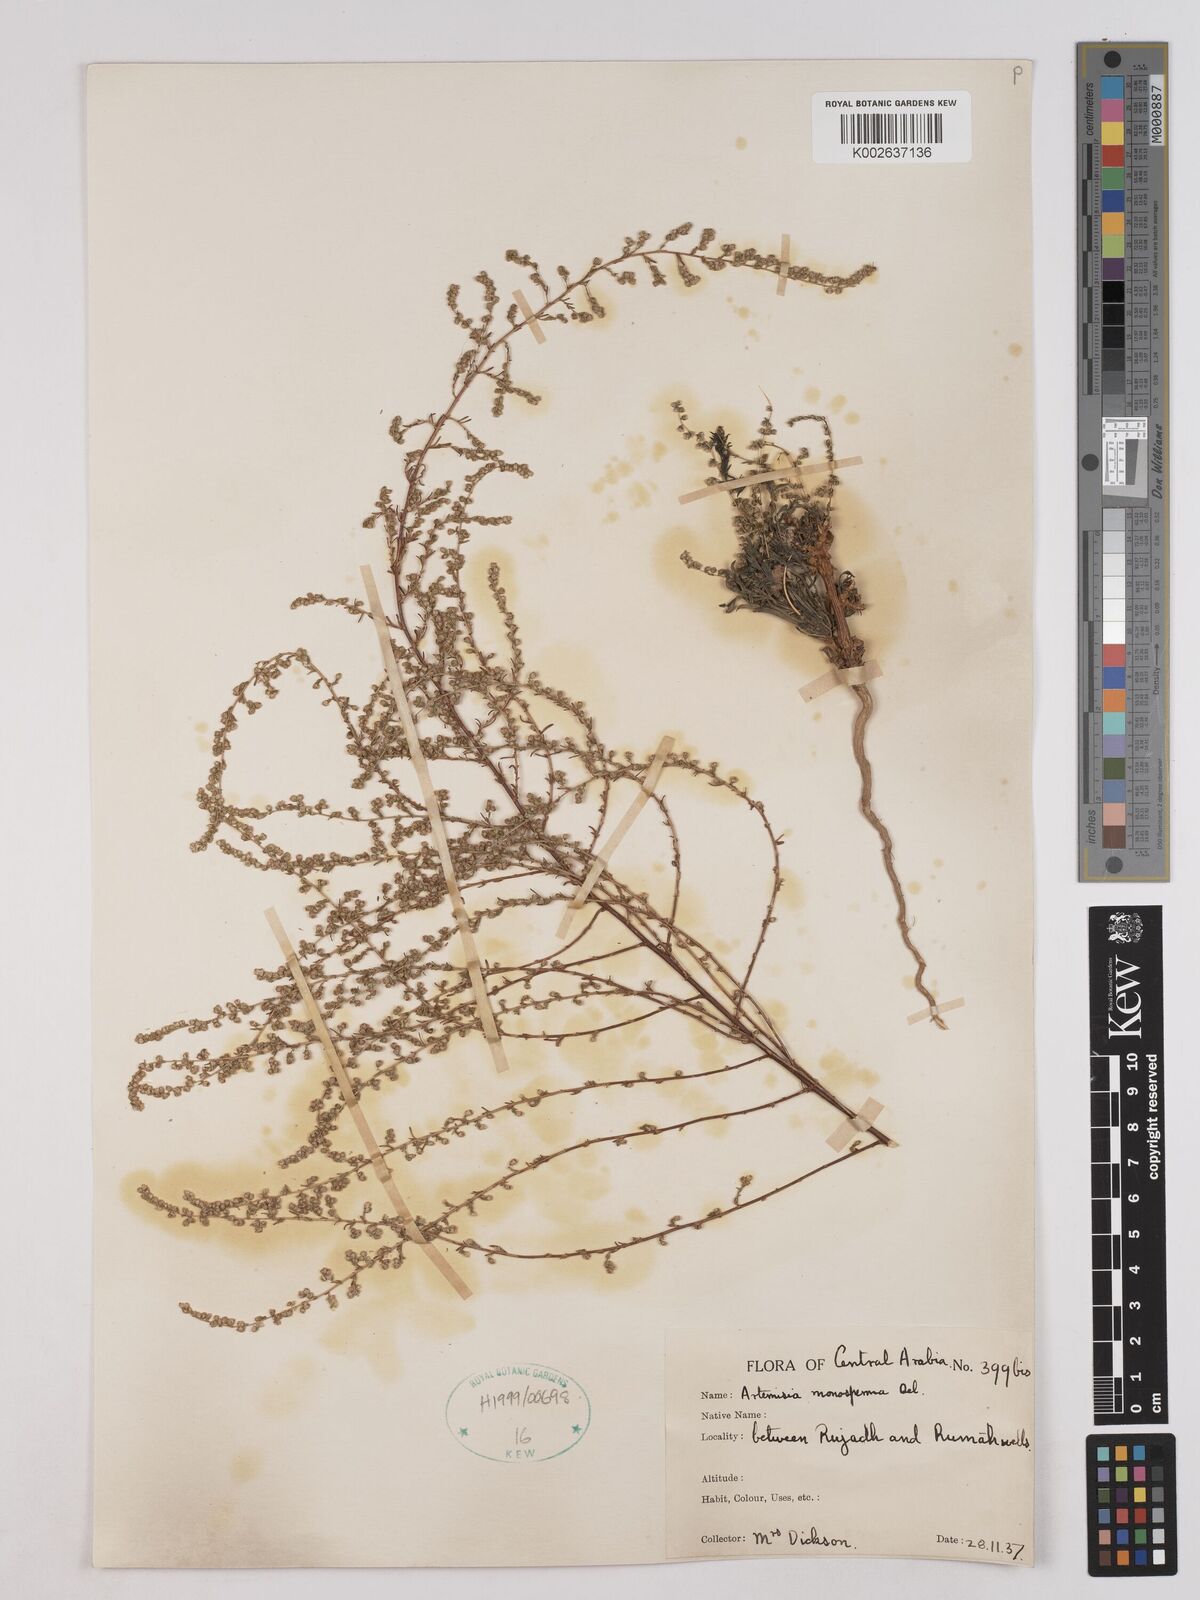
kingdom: Plantae
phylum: Tracheophyta
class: Magnoliopsida
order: Asterales
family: Asteraceae
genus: Artemisia
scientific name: Artemisia monosperma
